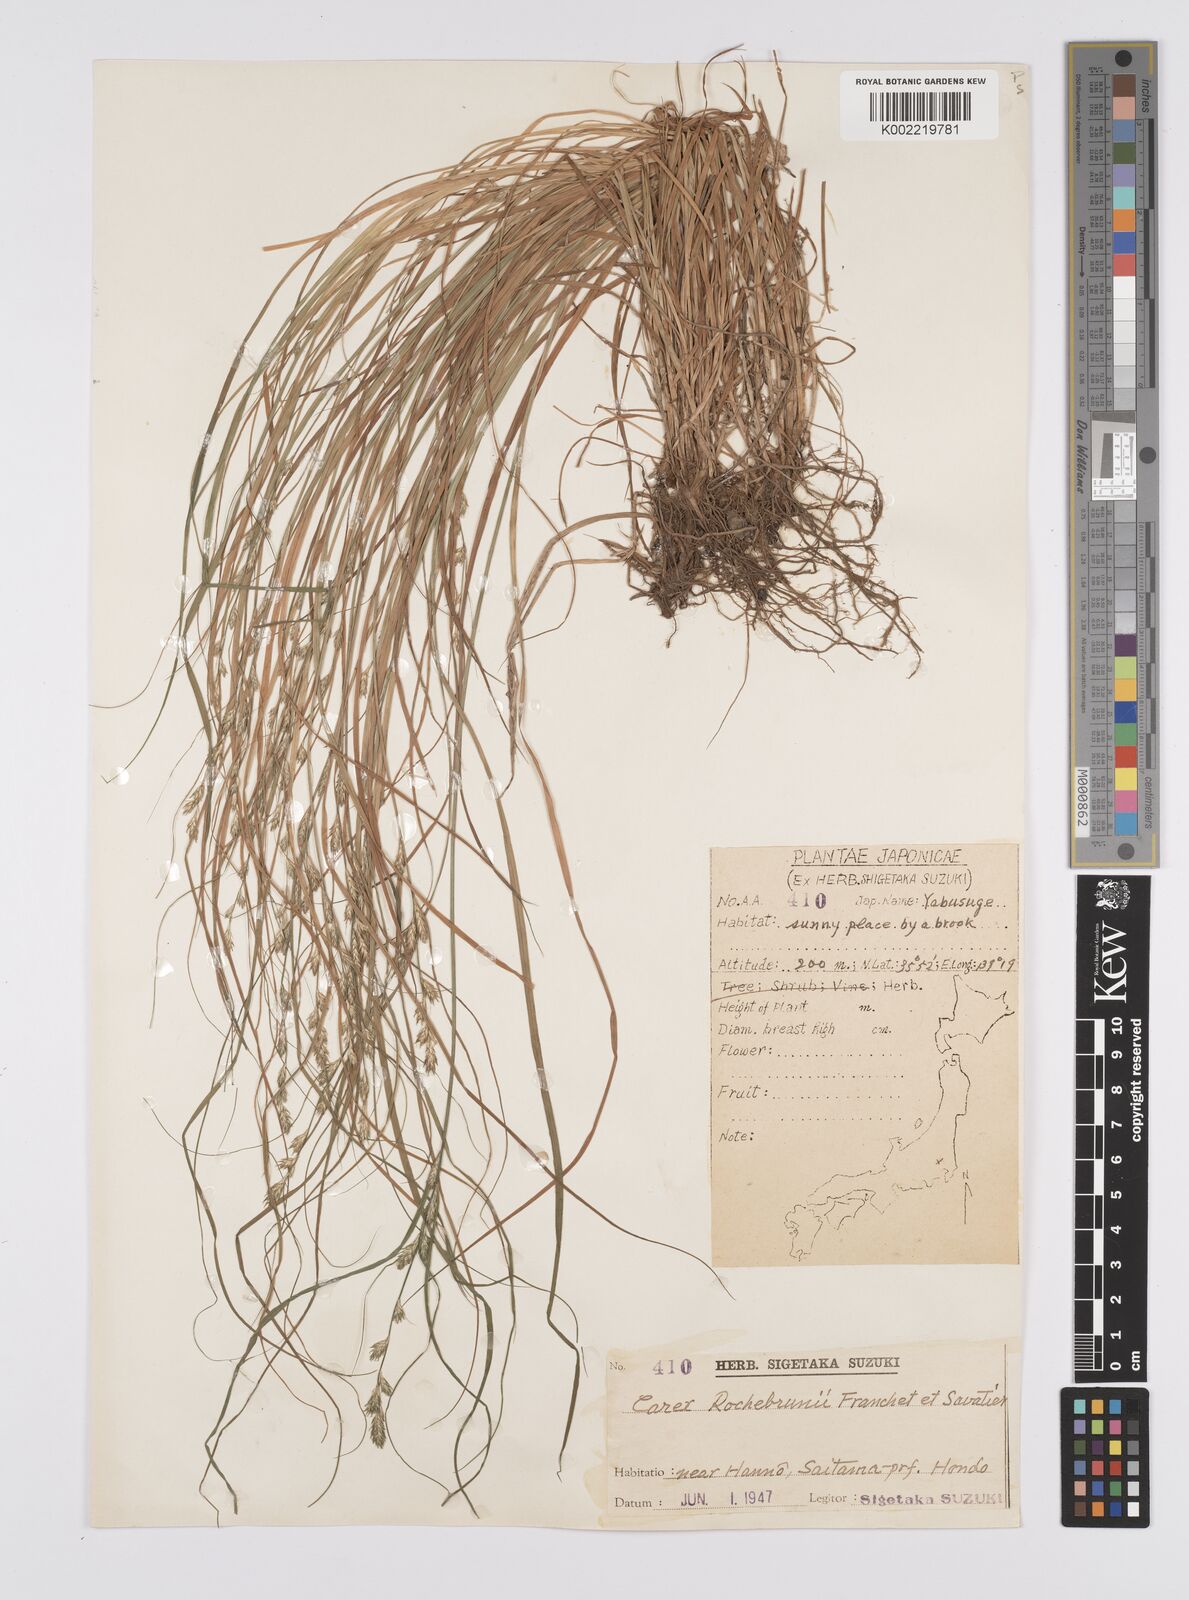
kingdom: Plantae
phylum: Tracheophyta
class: Liliopsida
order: Poales
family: Cyperaceae
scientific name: Cyperaceae
